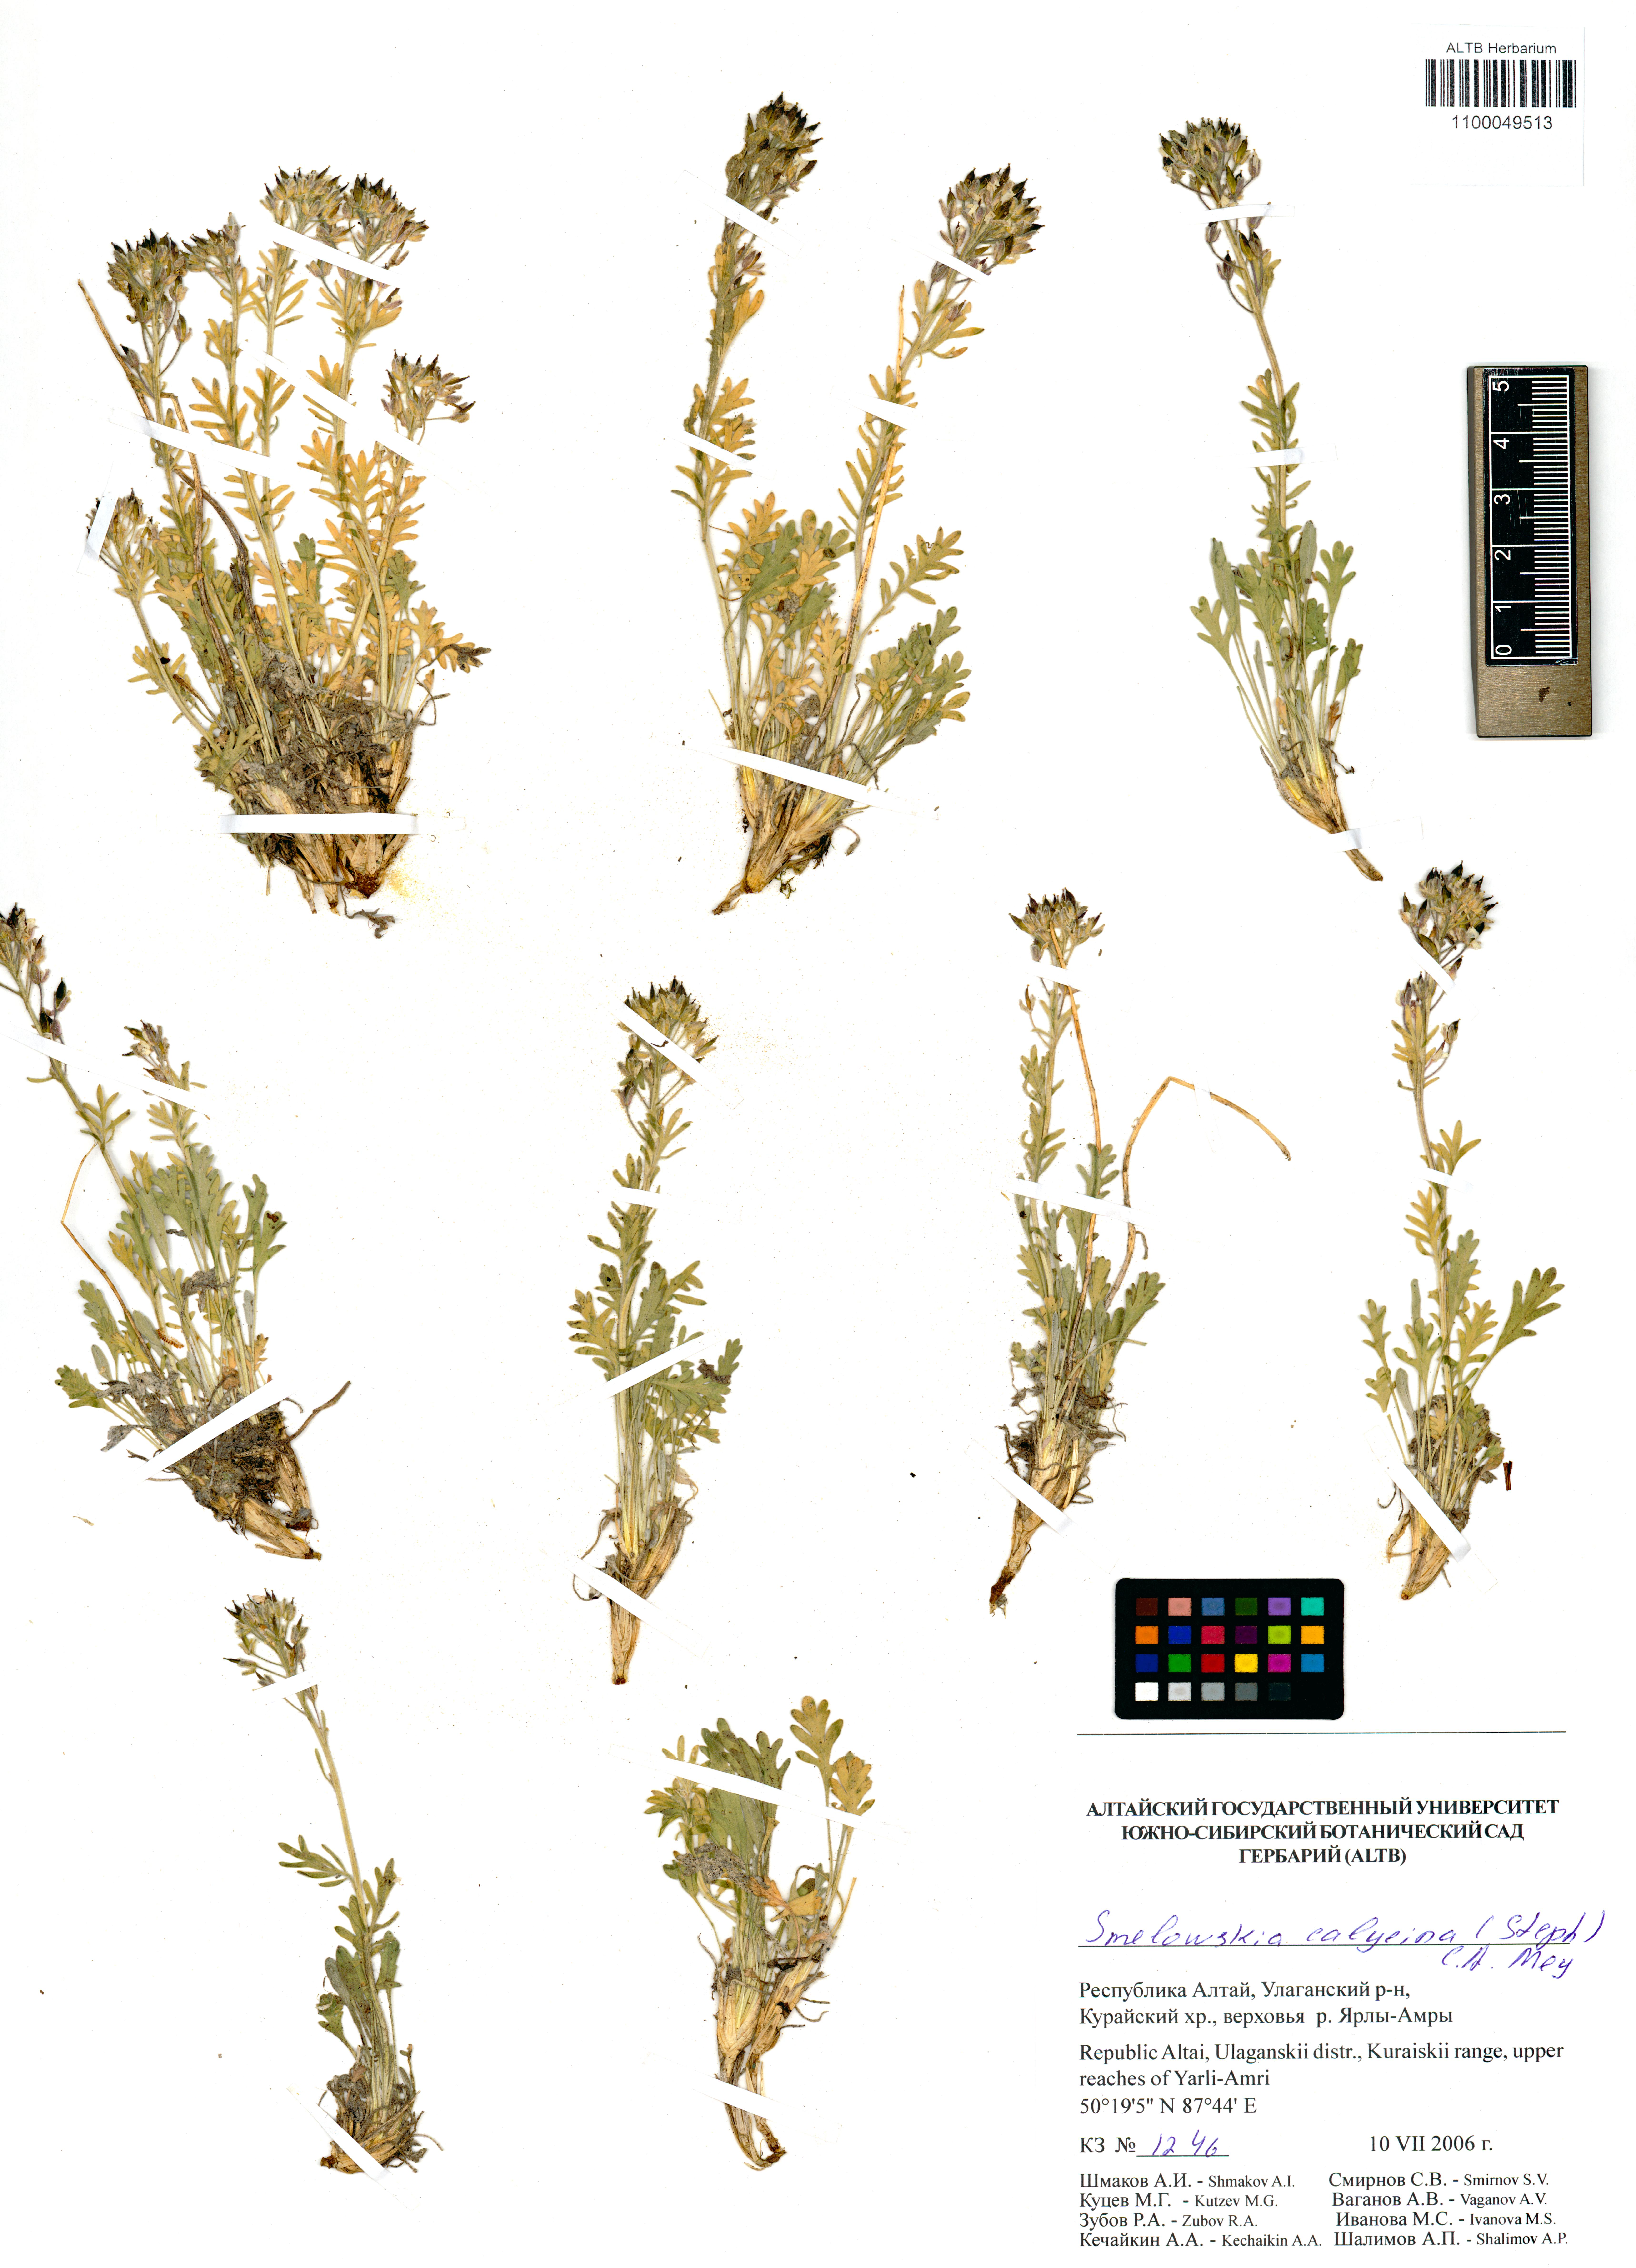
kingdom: Plantae
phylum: Tracheophyta
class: Magnoliopsida
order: Brassicales
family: Brassicaceae
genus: Smelowskia
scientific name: Smelowskia calycina
